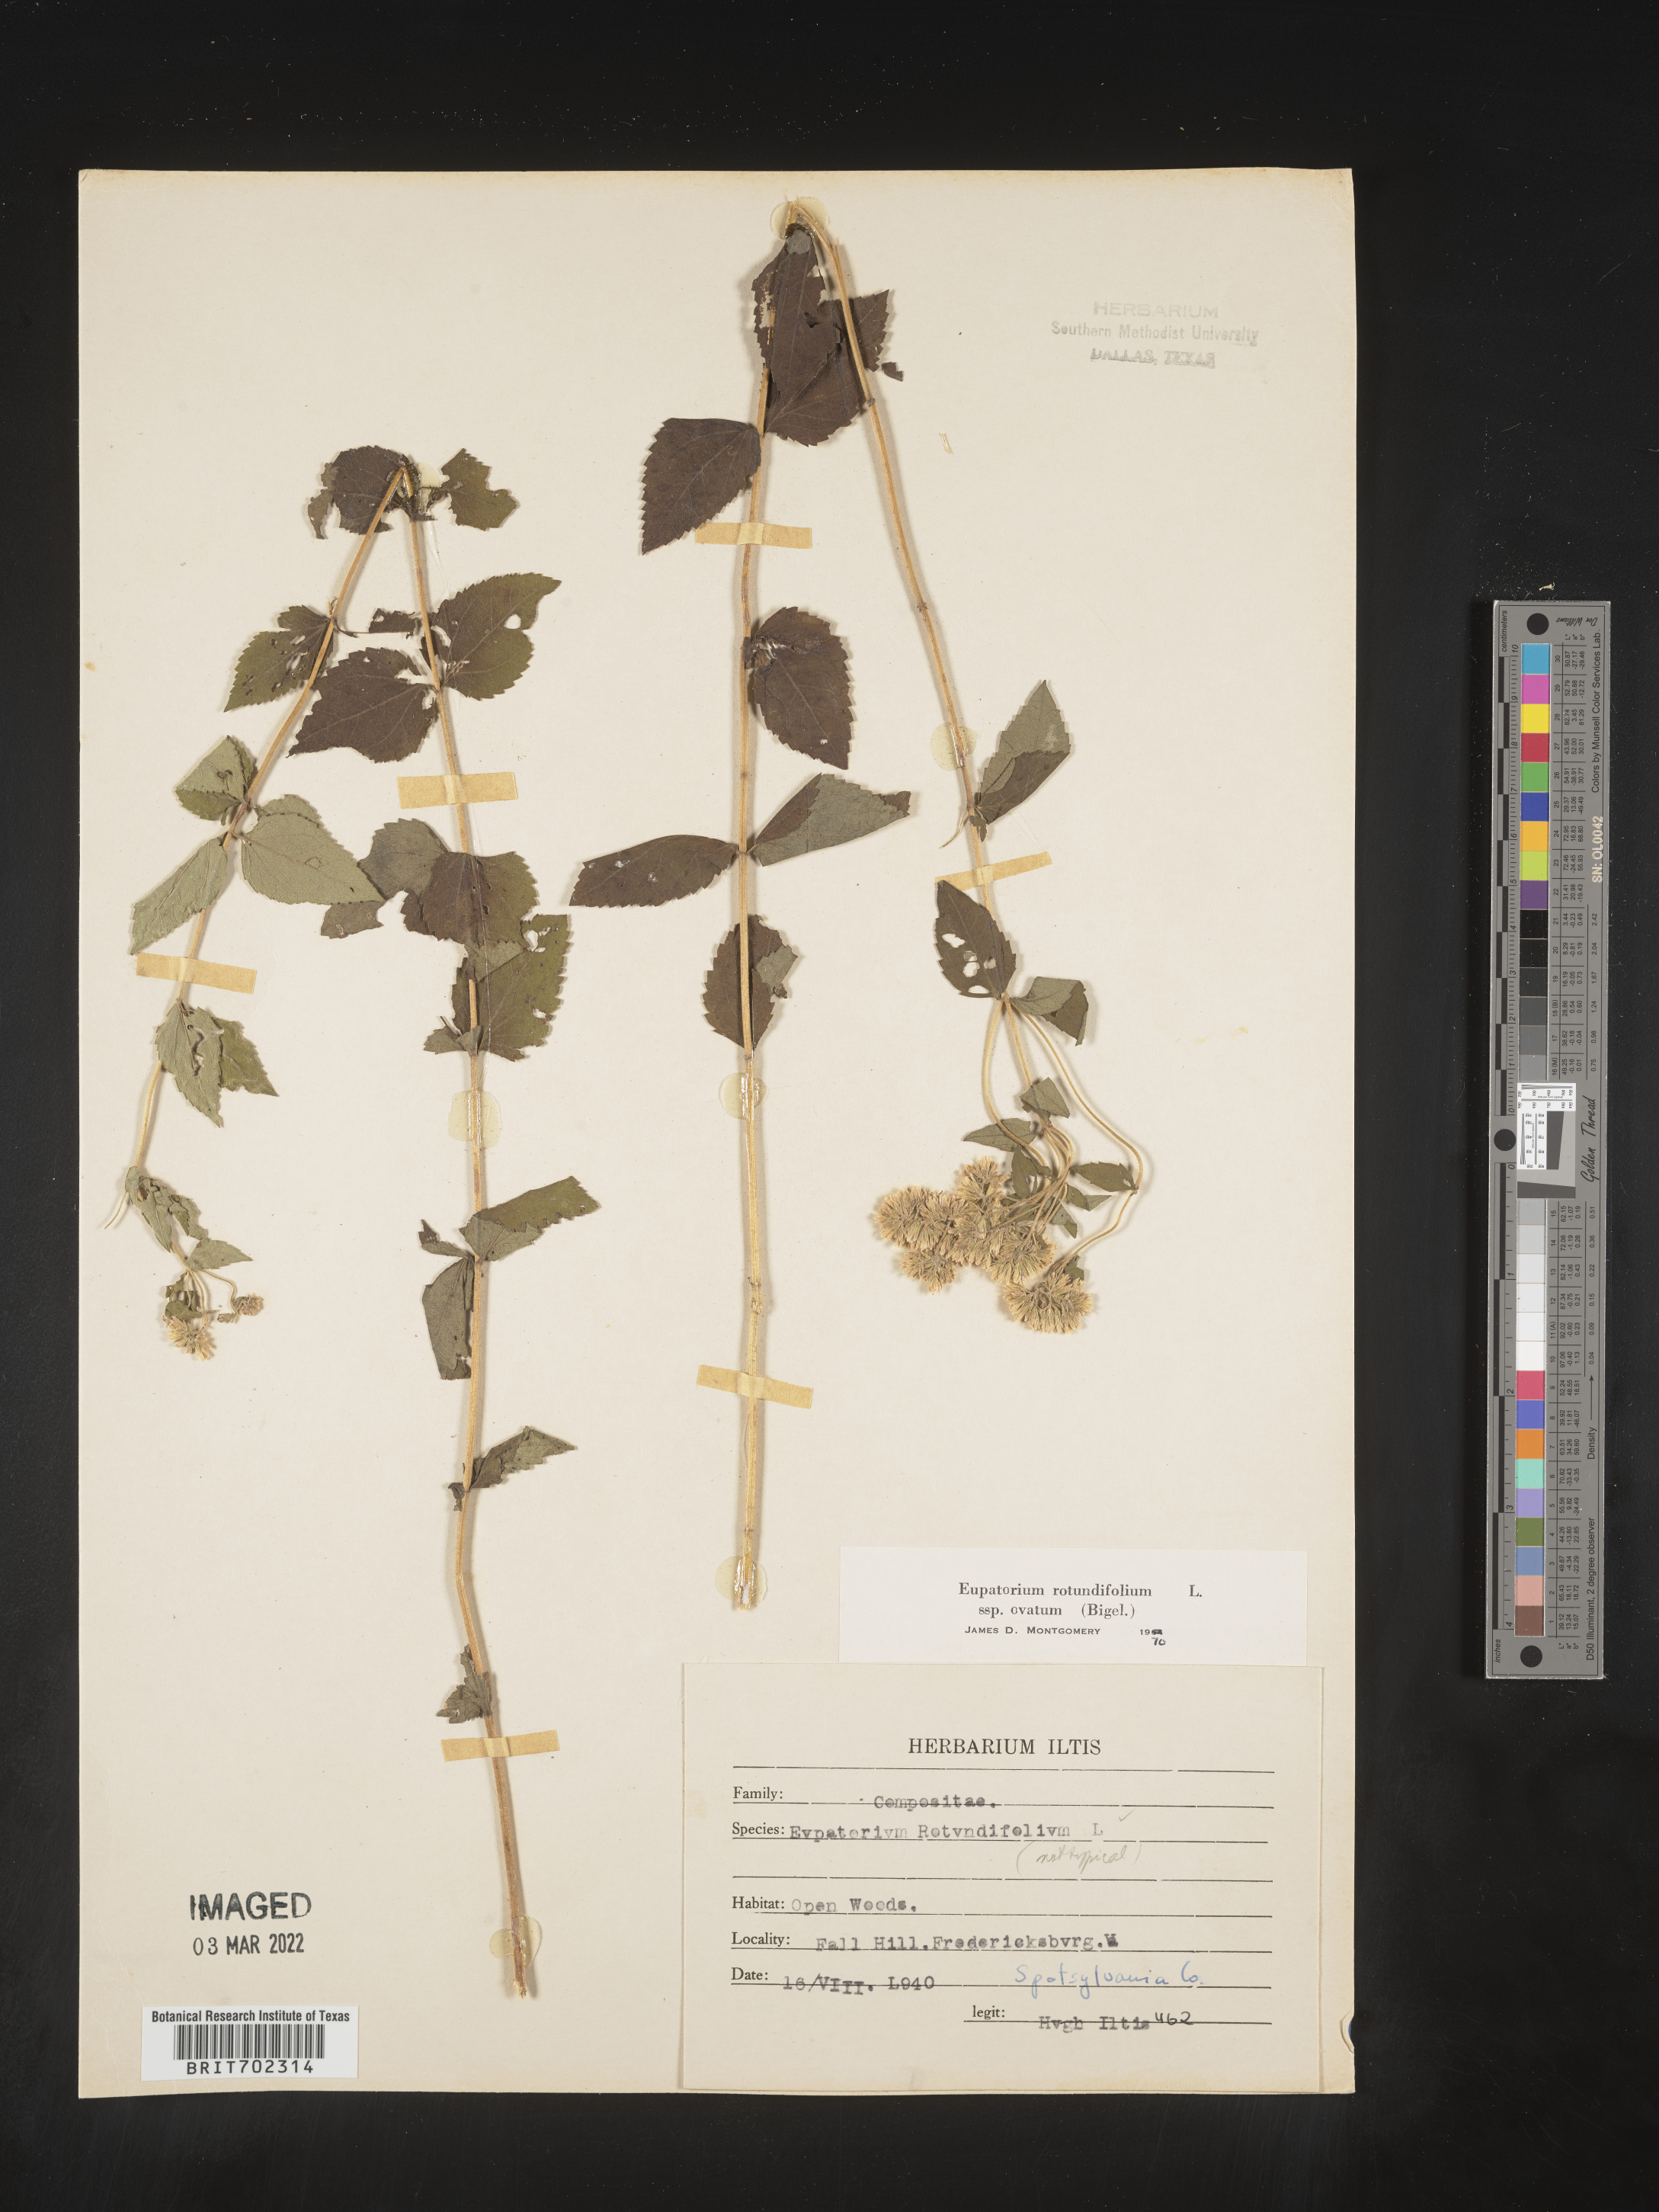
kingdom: Plantae
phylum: Tracheophyta
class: Magnoliopsida
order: Asterales
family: Asteraceae
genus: Eupatorium
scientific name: Eupatorium rotundifolium
